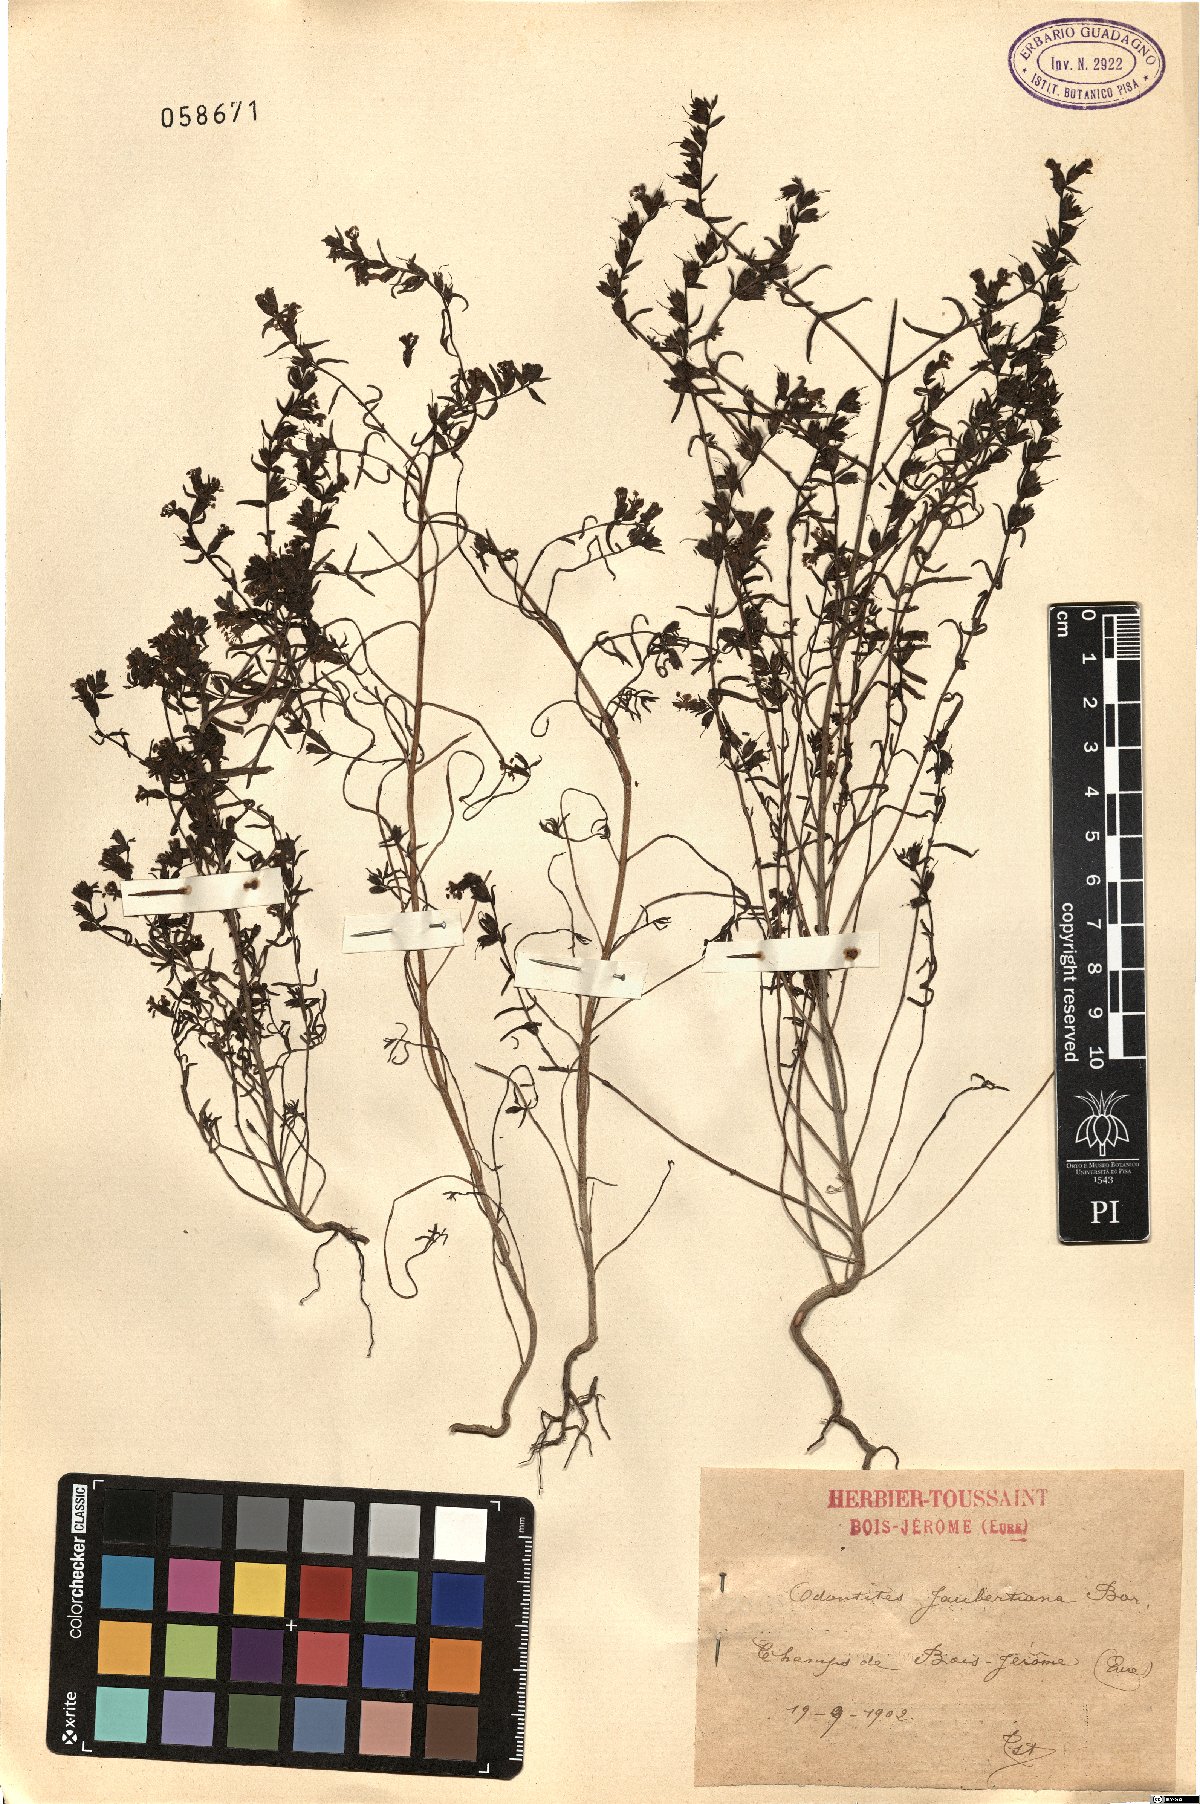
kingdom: Plantae
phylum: Tracheophyta
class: Magnoliopsida
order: Lamiales
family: Orobanchaceae
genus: Odontites
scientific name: Odontites jaubertianus
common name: French bartsia
